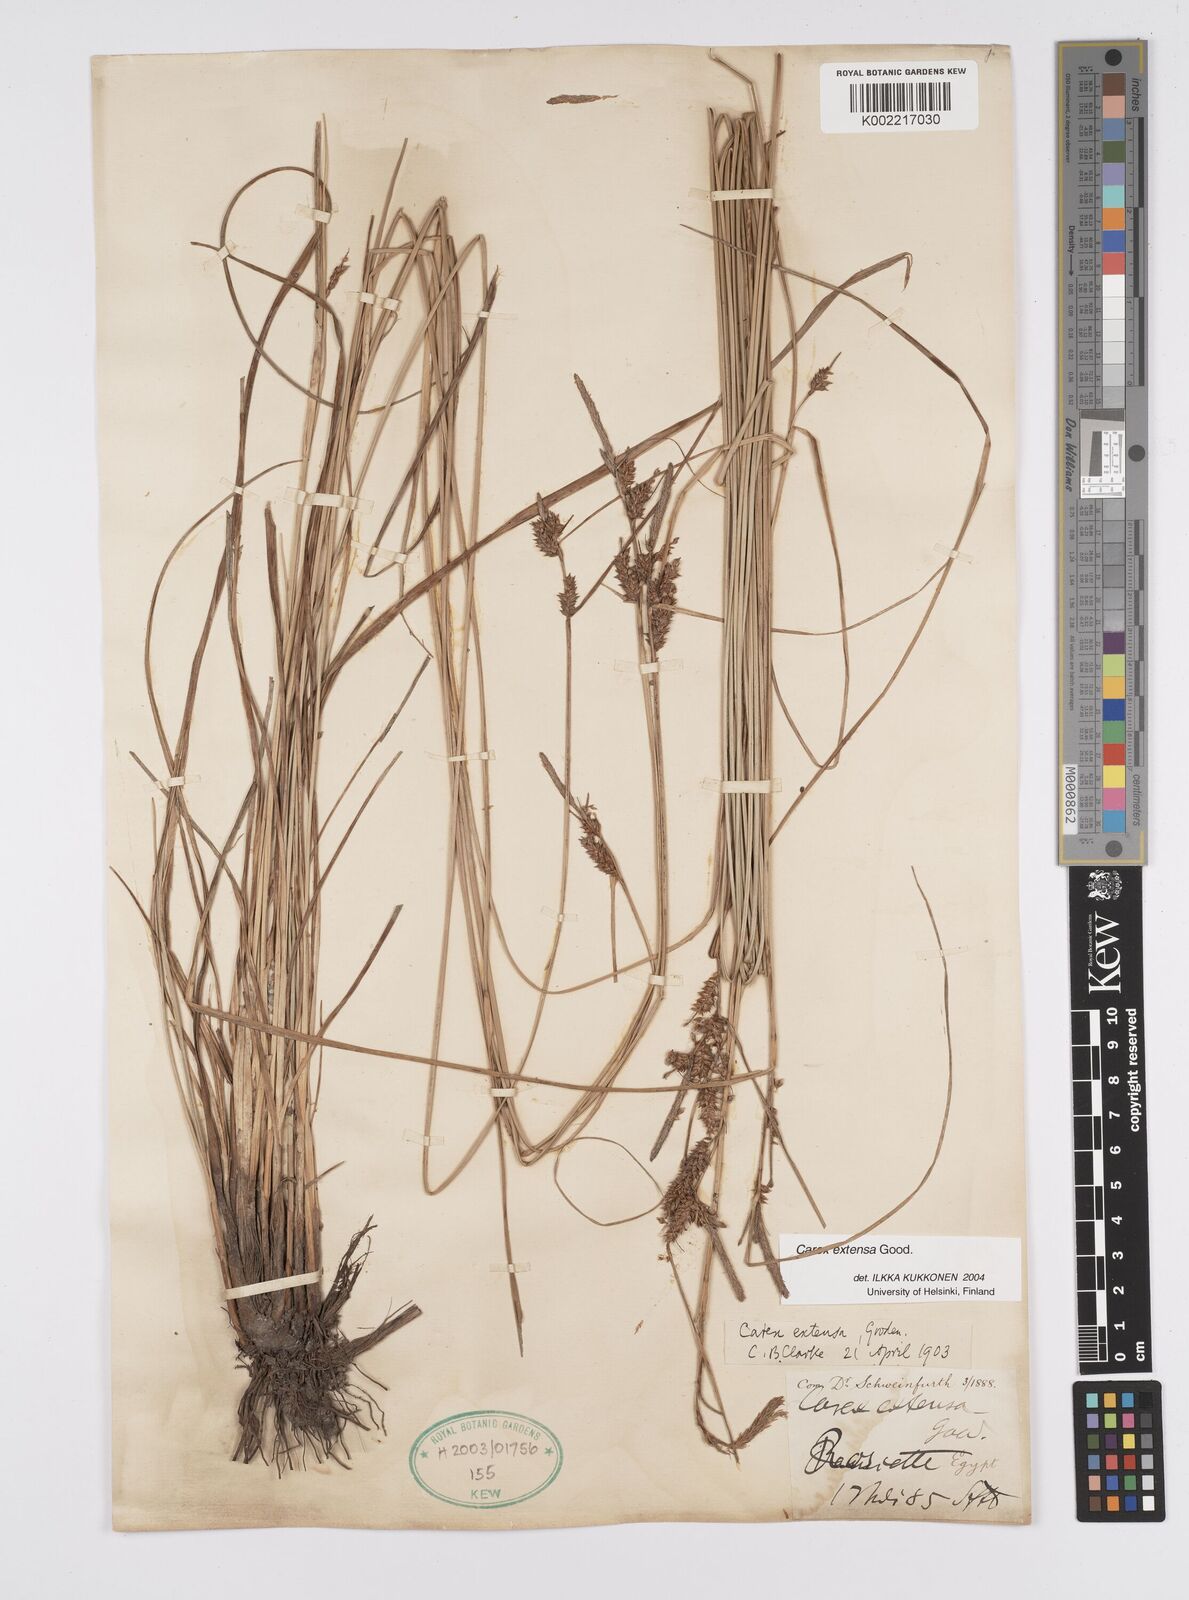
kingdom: Plantae
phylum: Tracheophyta
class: Liliopsida
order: Poales
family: Cyperaceae
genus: Carex
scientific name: Carex extensa
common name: Long-bracted sedge
